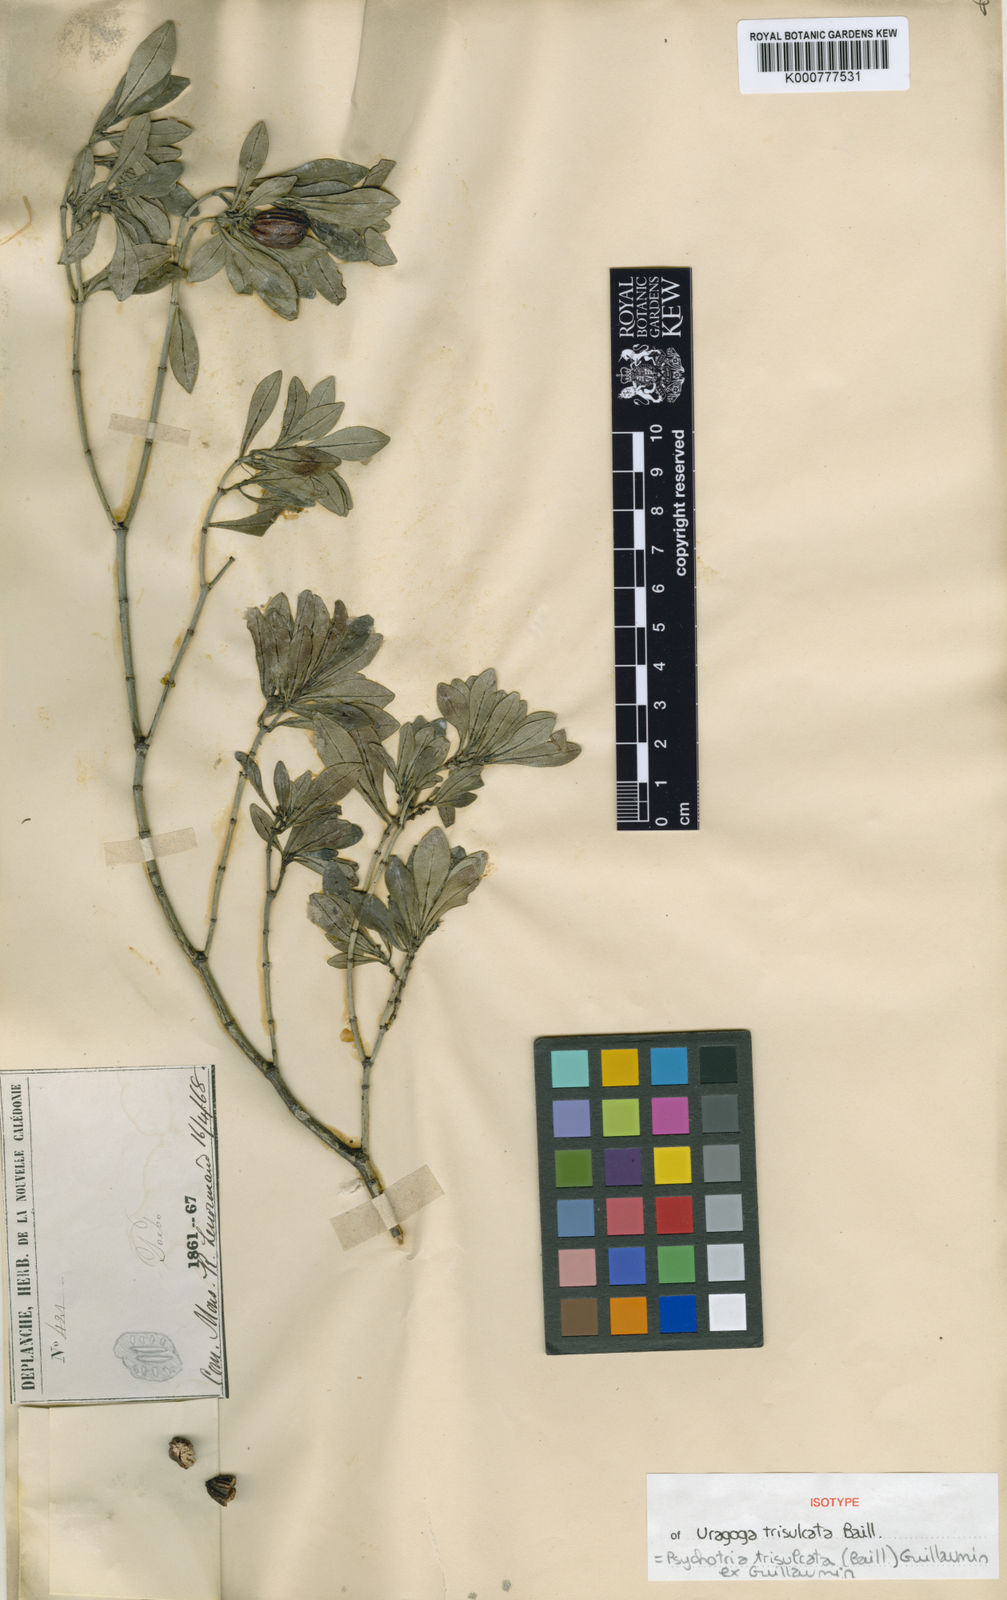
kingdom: Plantae
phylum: Tracheophyta
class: Magnoliopsida
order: Gentianales
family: Rubiaceae
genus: Psychotria
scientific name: Psychotria trisulcata
